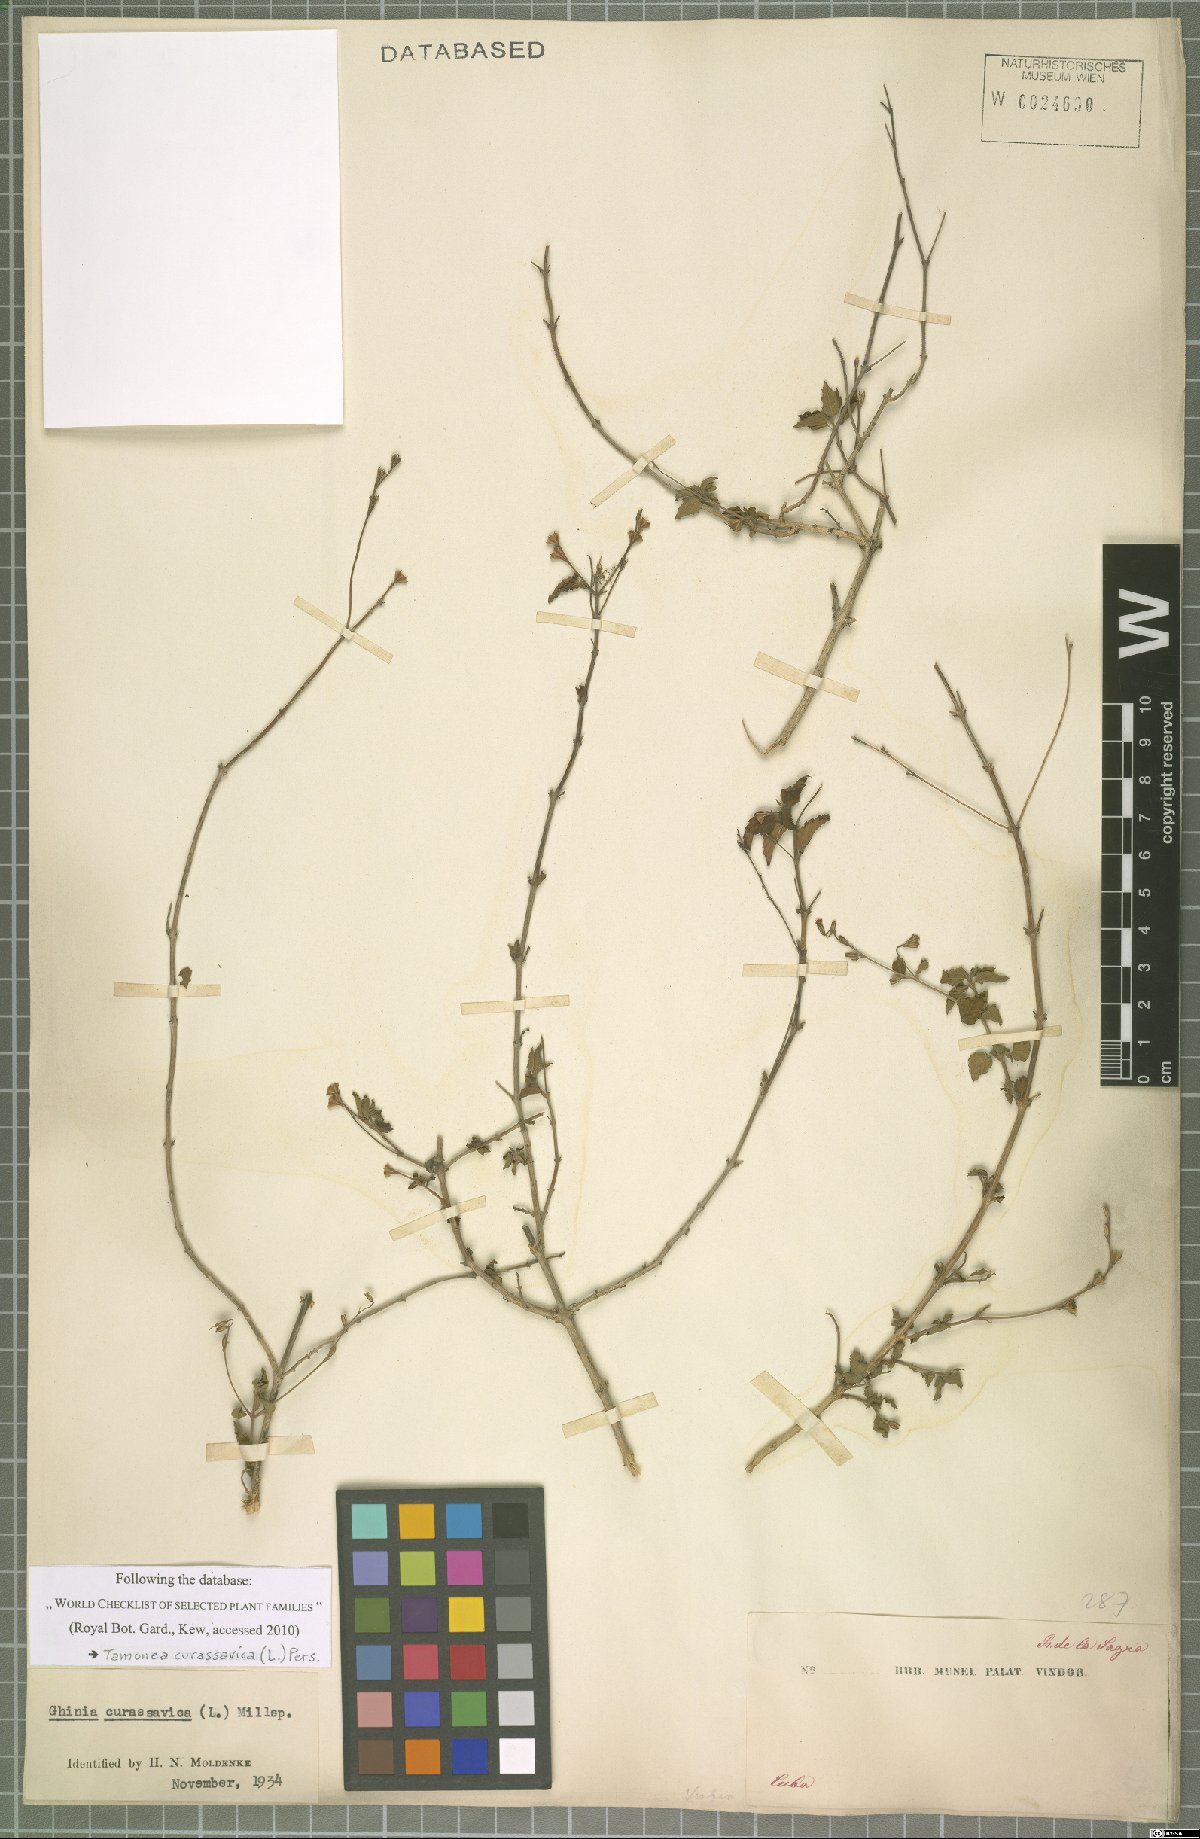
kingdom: Plantae
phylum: Tracheophyta
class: Magnoliopsida
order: Lamiales
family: Verbenaceae
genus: Tamonea
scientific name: Tamonea curassavica
